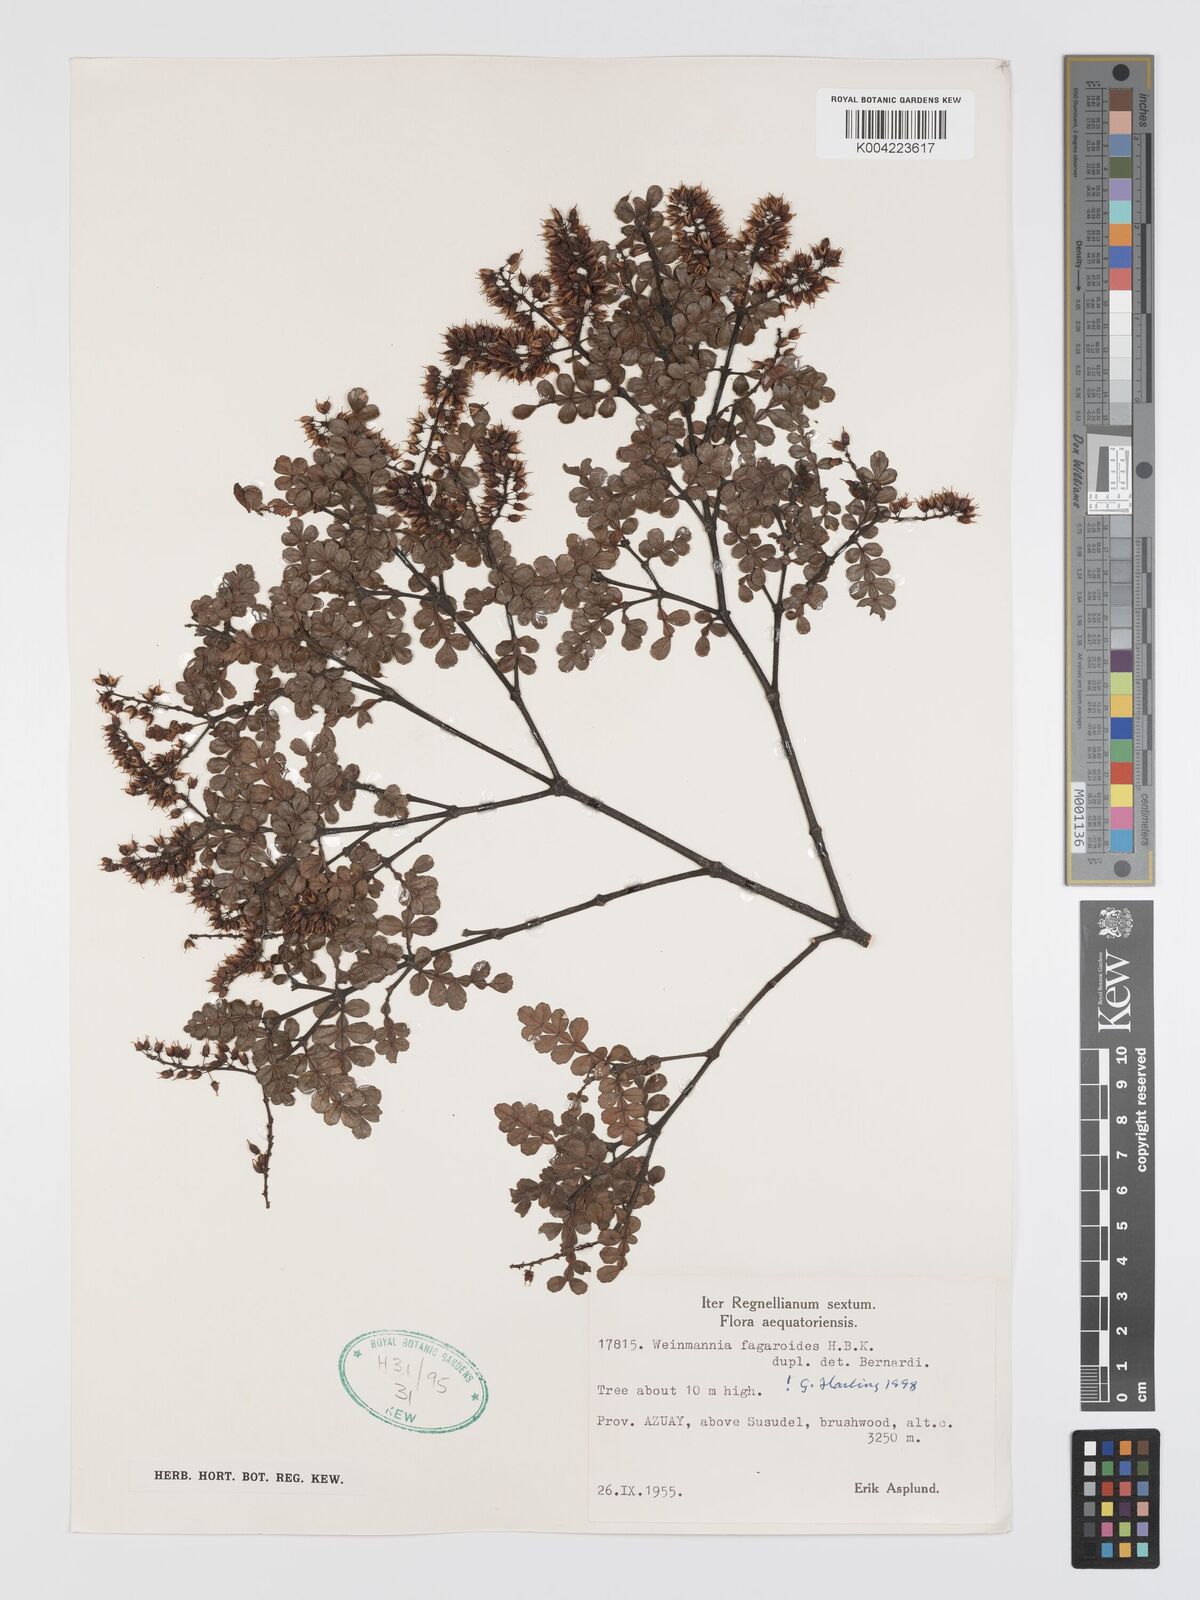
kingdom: Plantae
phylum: Tracheophyta
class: Magnoliopsida
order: Oxalidales
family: Cunoniaceae
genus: Weinmannia
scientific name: Weinmannia fagaroides
